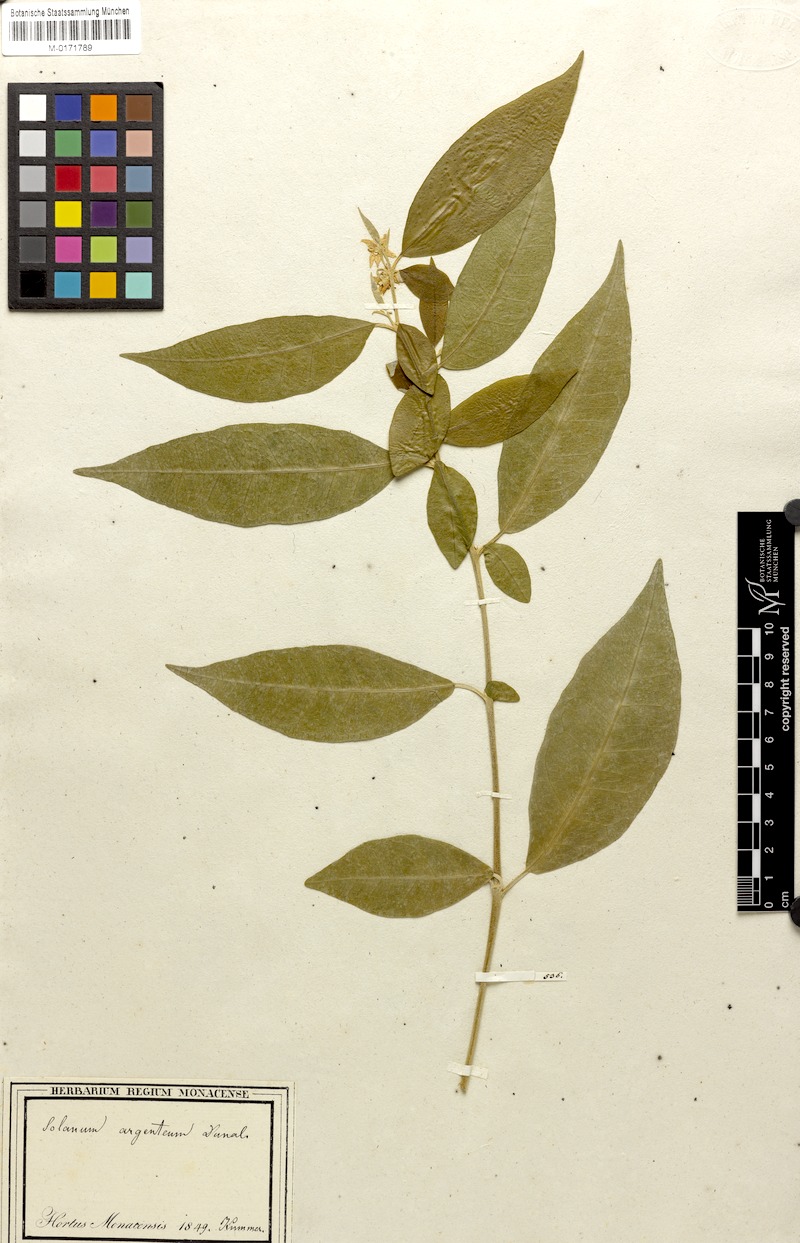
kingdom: Plantae
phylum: Tracheophyta
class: Magnoliopsida
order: Solanales
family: Solanaceae
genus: Solanum
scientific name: Solanum argenteum
